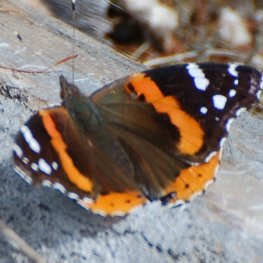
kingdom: Animalia
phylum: Arthropoda
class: Insecta
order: Lepidoptera
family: Nymphalidae
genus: Vanessa
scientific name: Vanessa atalanta
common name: Red Admiral
